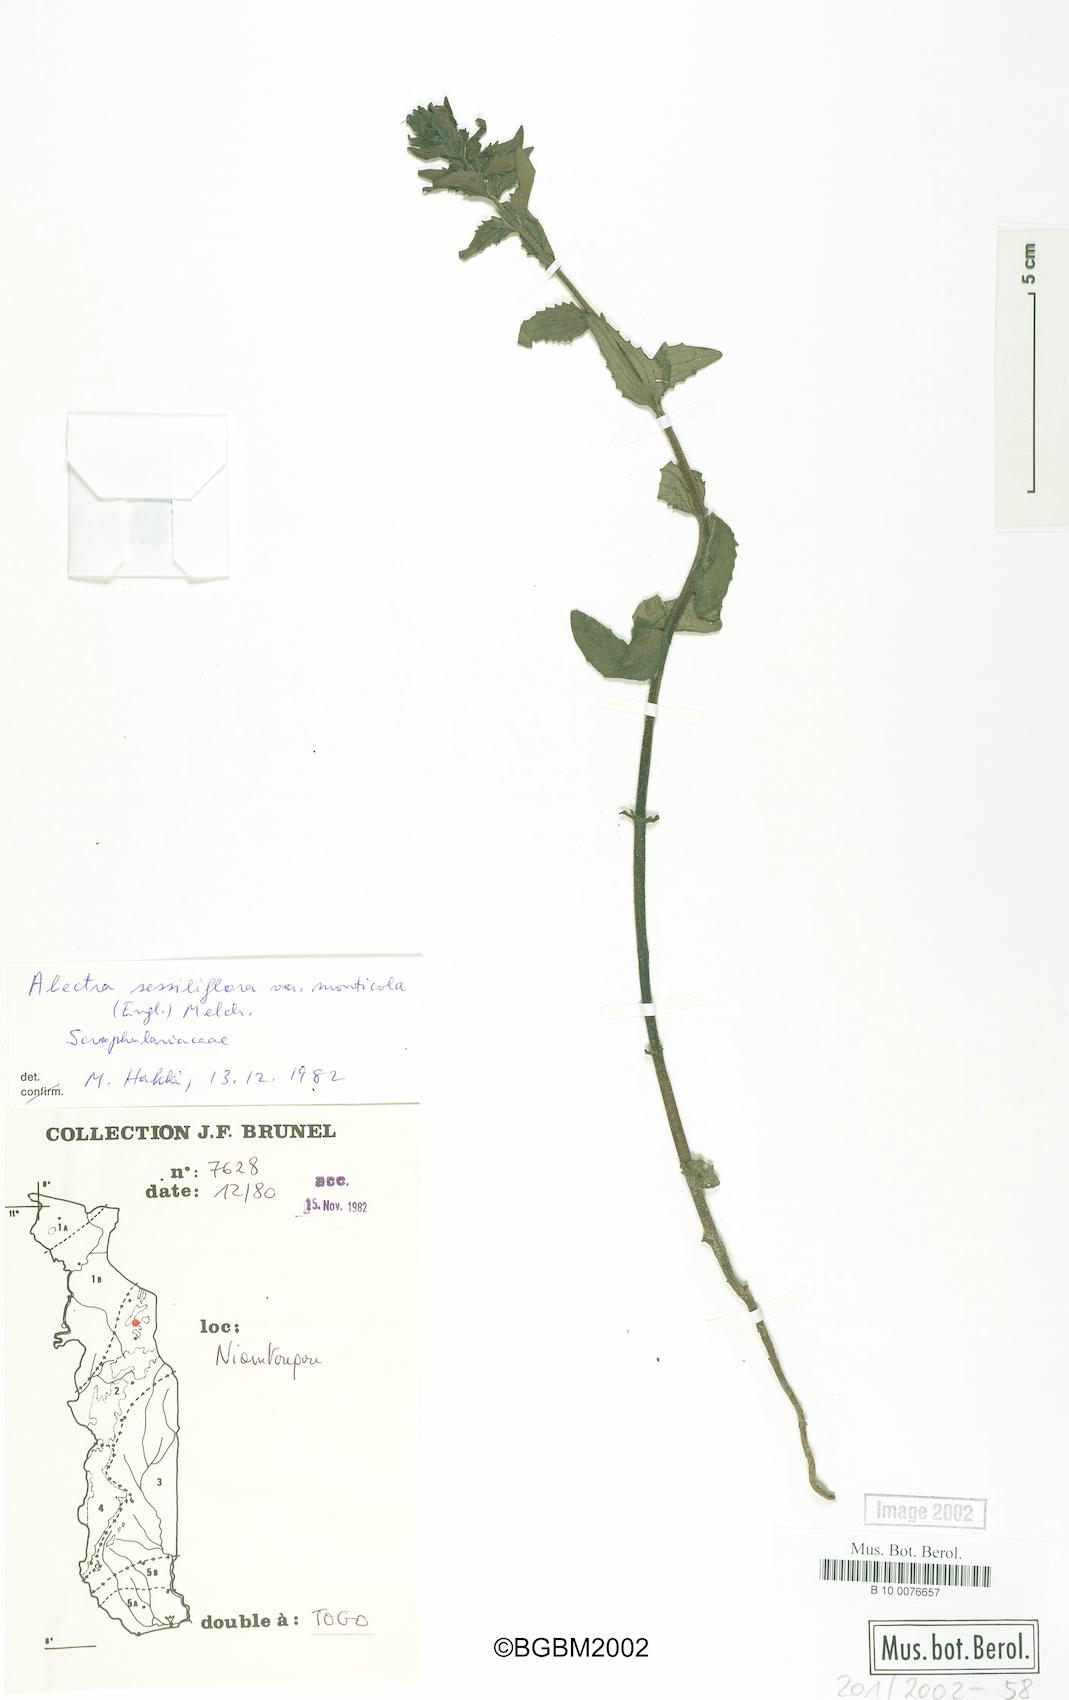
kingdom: Plantae
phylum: Tracheophyta
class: Magnoliopsida
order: Lamiales
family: Orobanchaceae
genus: Alectra
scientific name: Alectra sessiliflora
